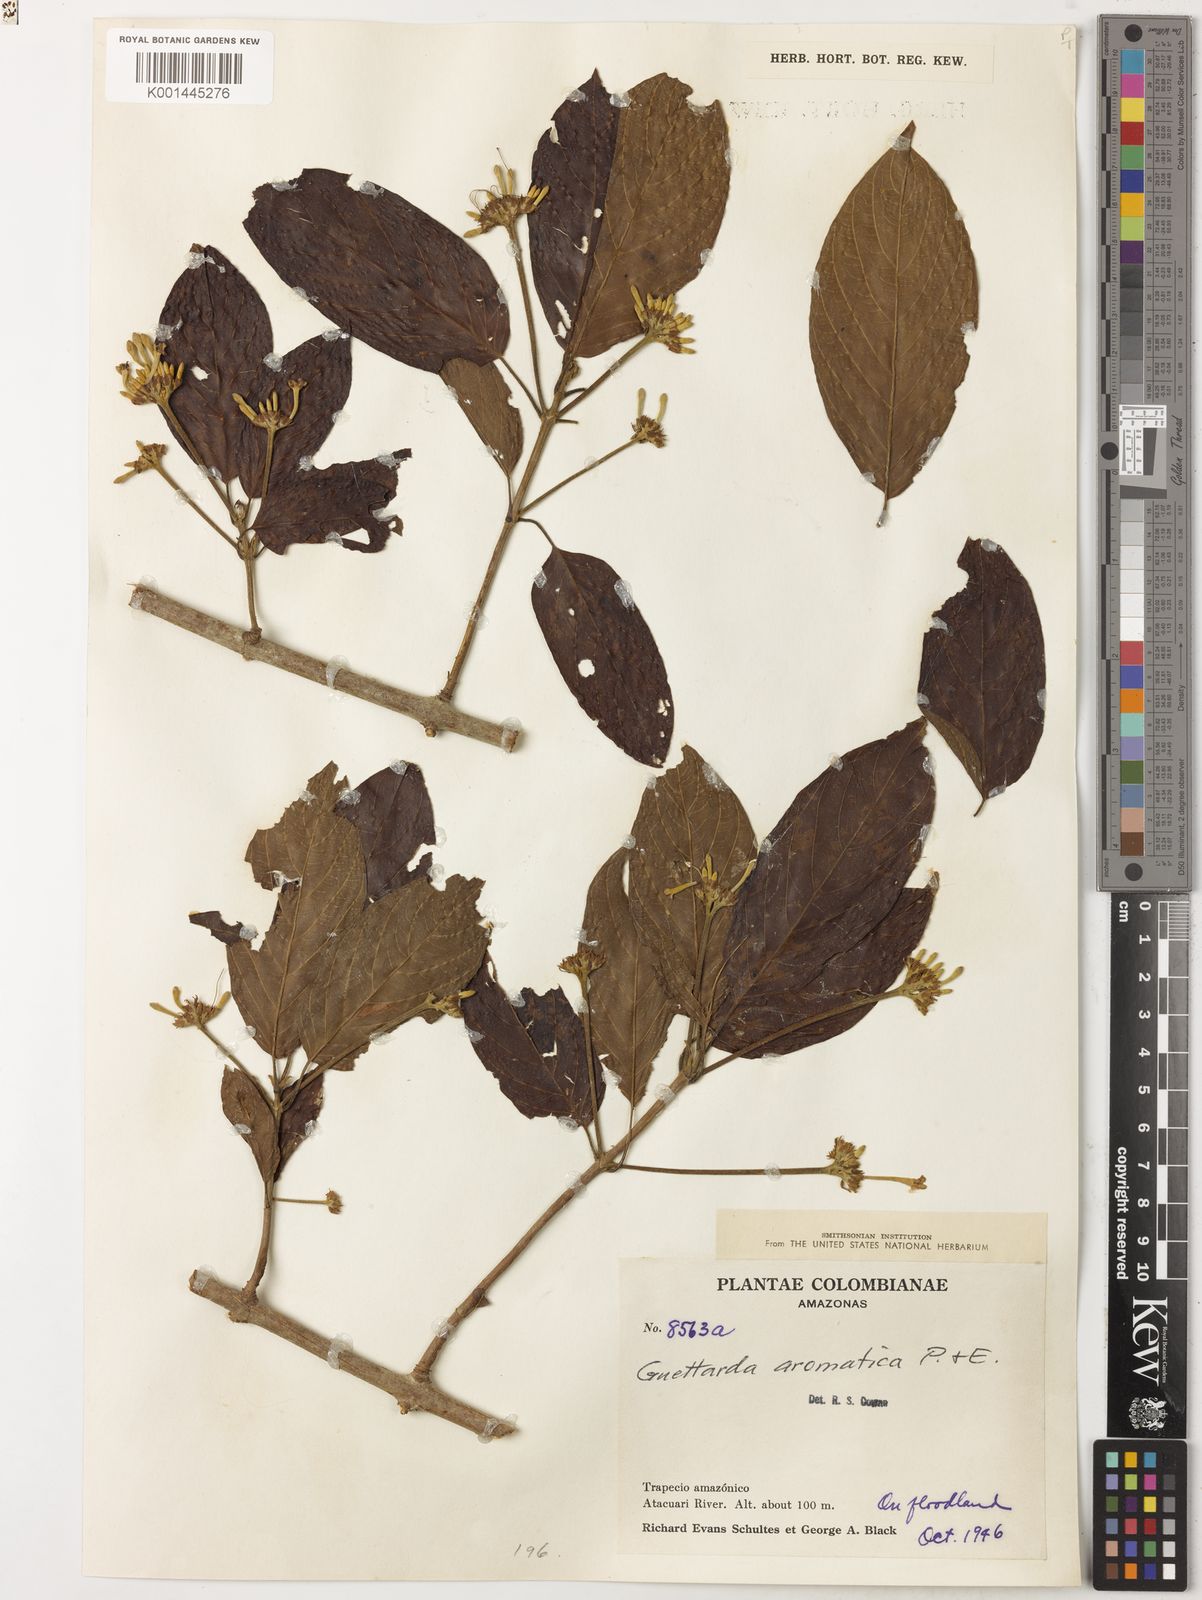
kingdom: Plantae
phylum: Tracheophyta
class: Magnoliopsida
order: Gentianales
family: Rubiaceae
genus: Guettarda
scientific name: Guettarda
